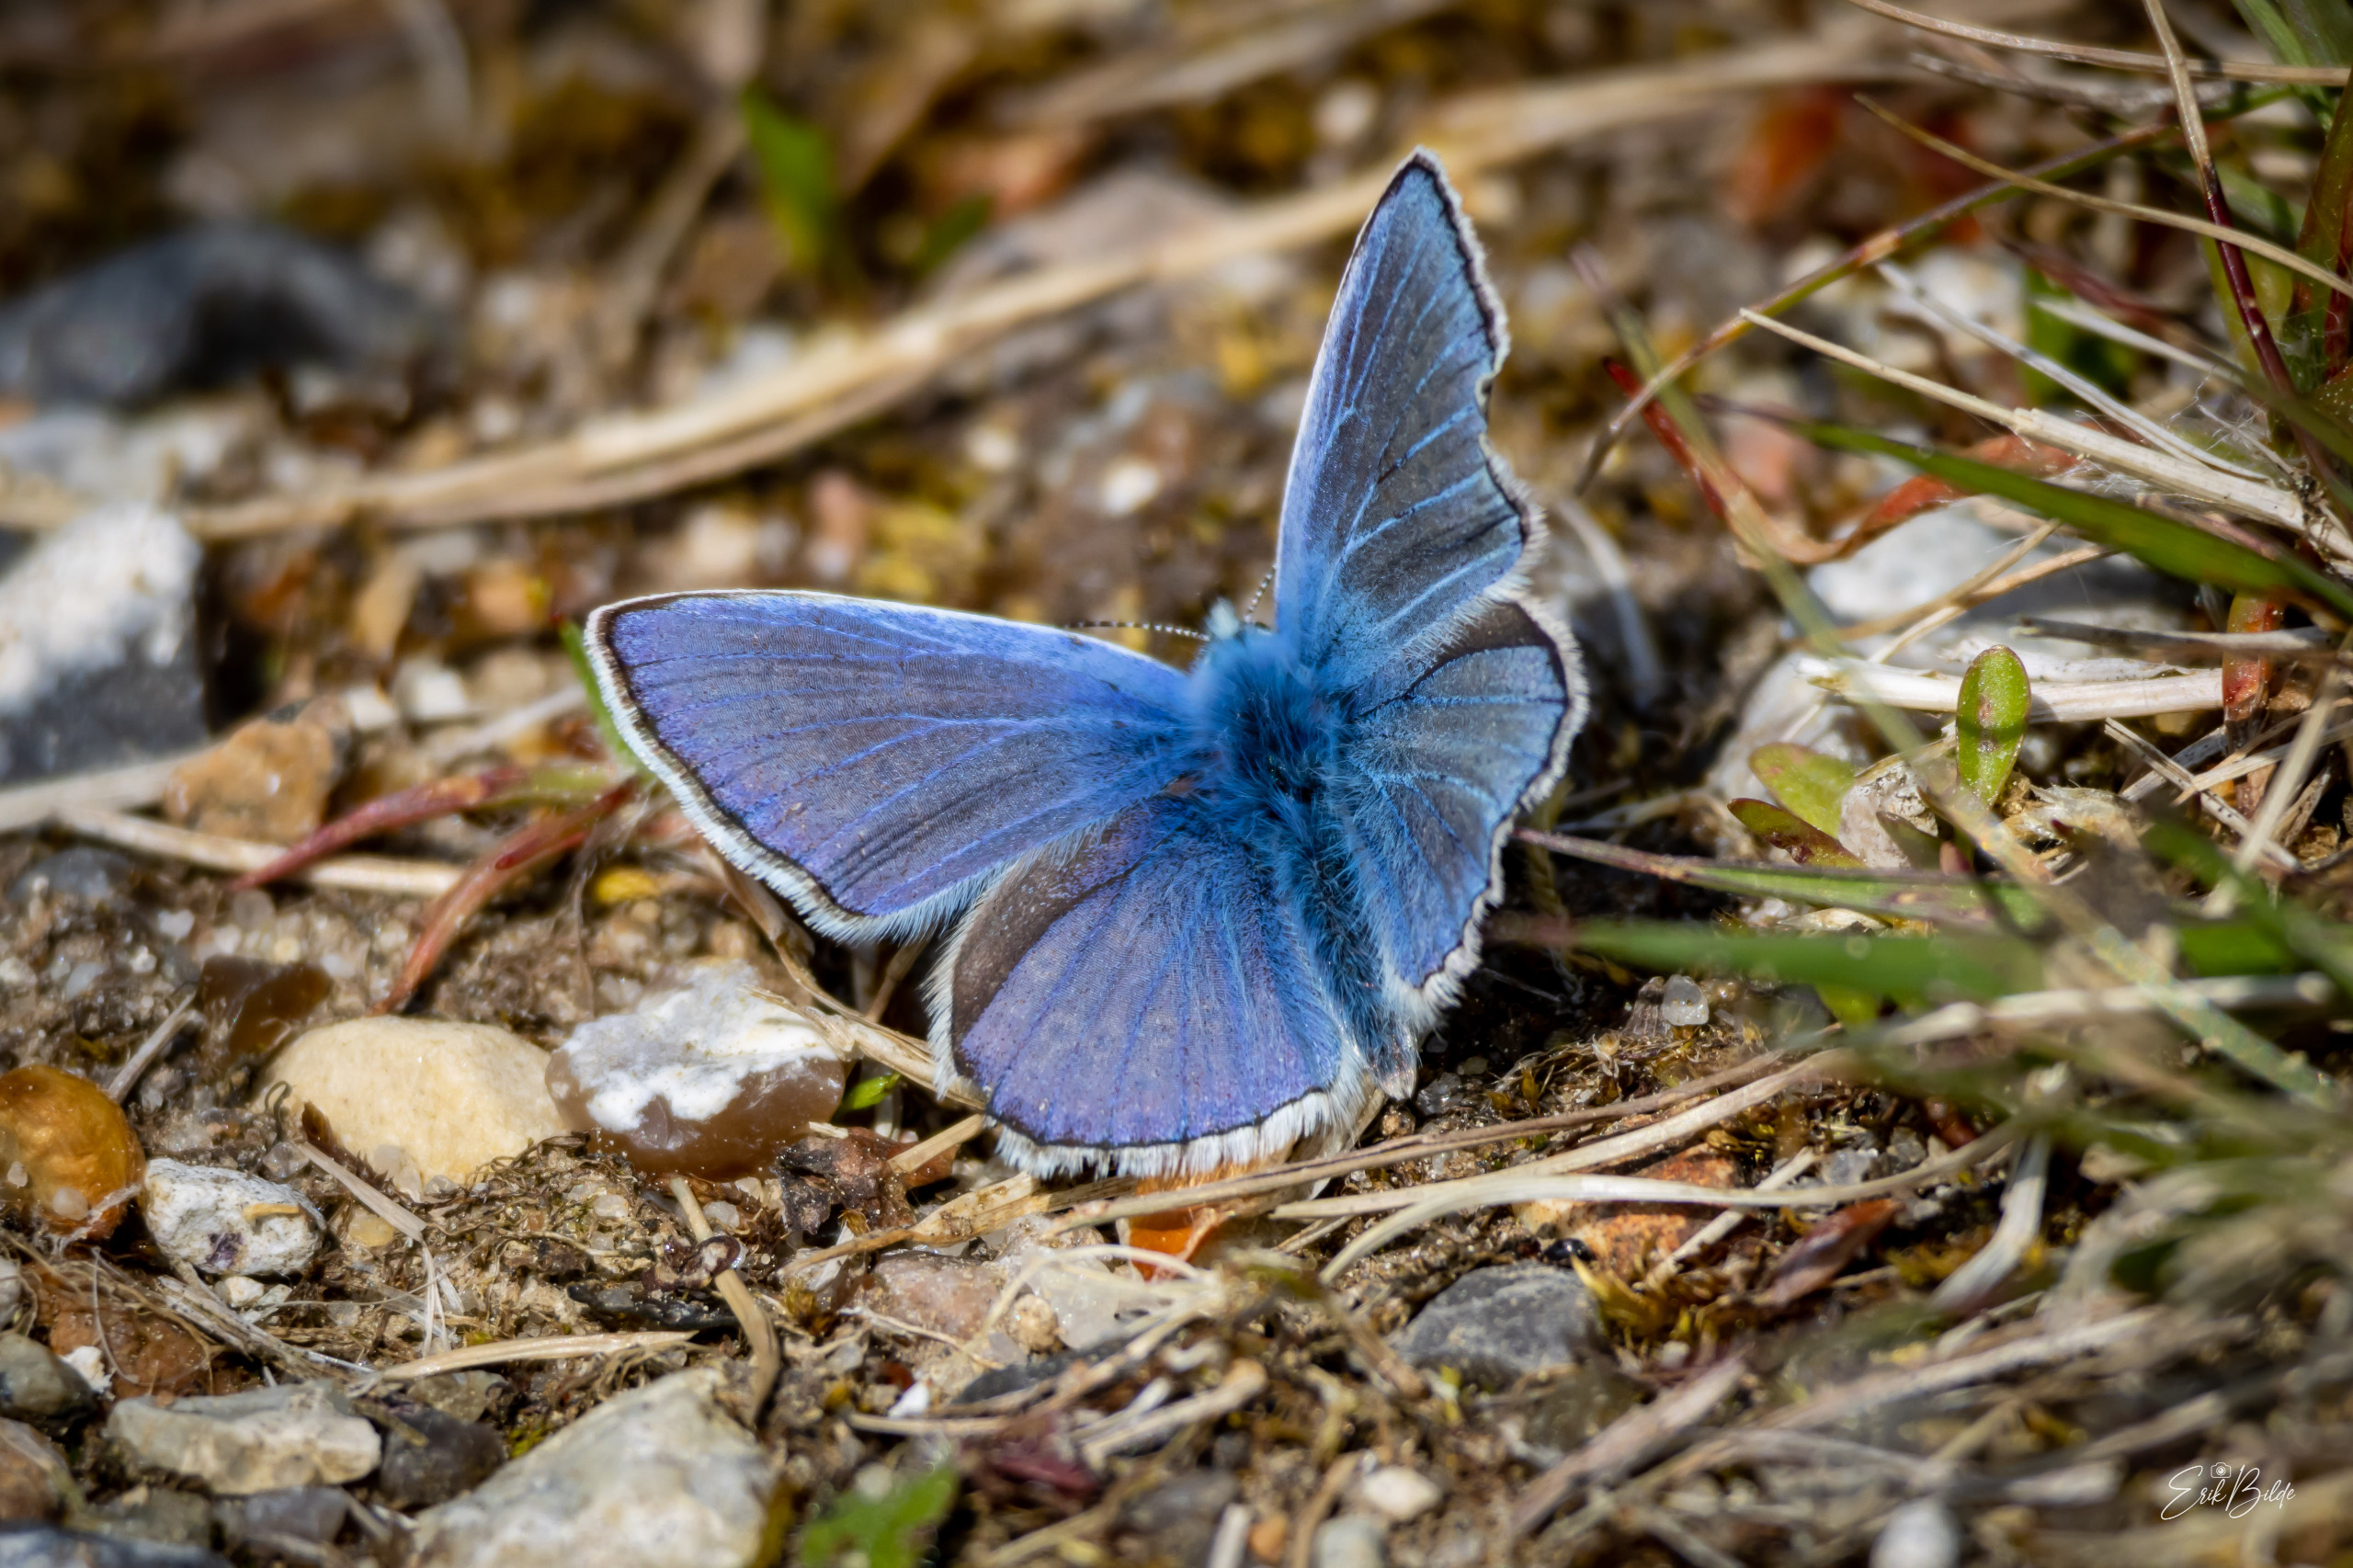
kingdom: Animalia
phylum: Arthropoda
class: Insecta
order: Lepidoptera
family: Lycaenidae
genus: Polyommatus
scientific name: Polyommatus icarus
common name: Almindelig blåfugl
